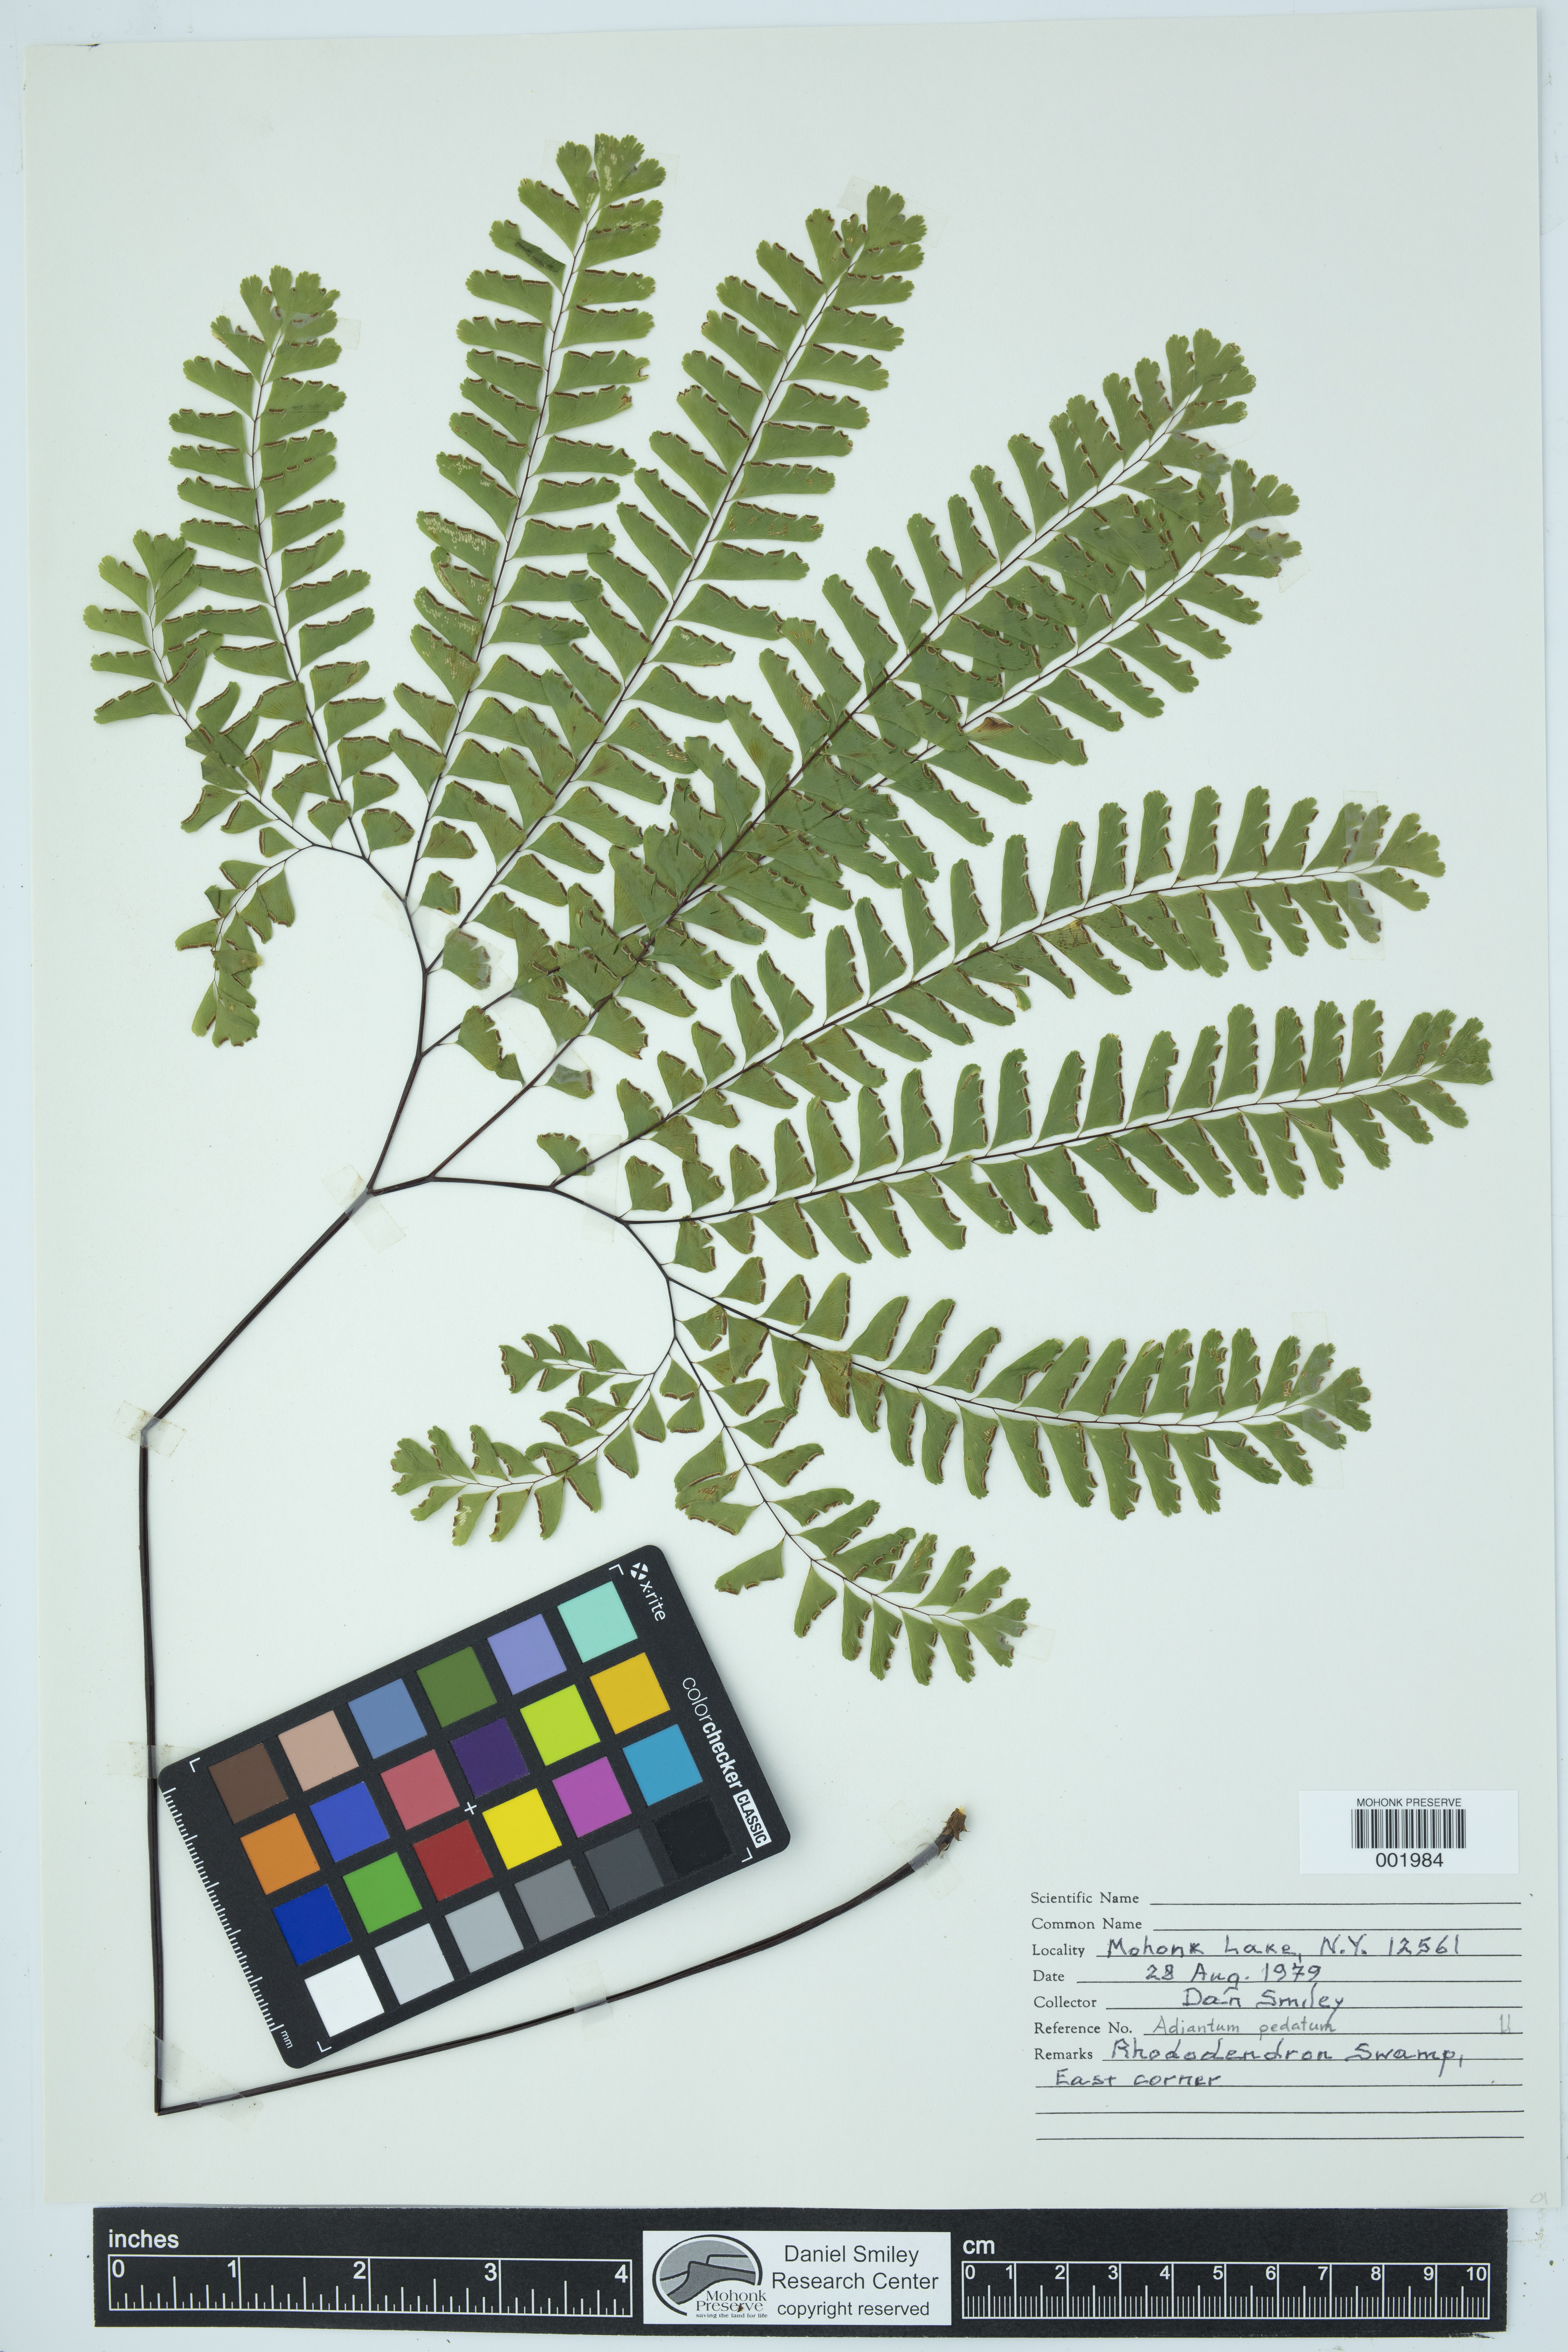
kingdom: Plantae
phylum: Tracheophyta
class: Polypodiopsida
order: Polypodiales
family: Pteridaceae
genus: Adiantum
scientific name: Adiantum pedatum
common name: Five-finger fern
